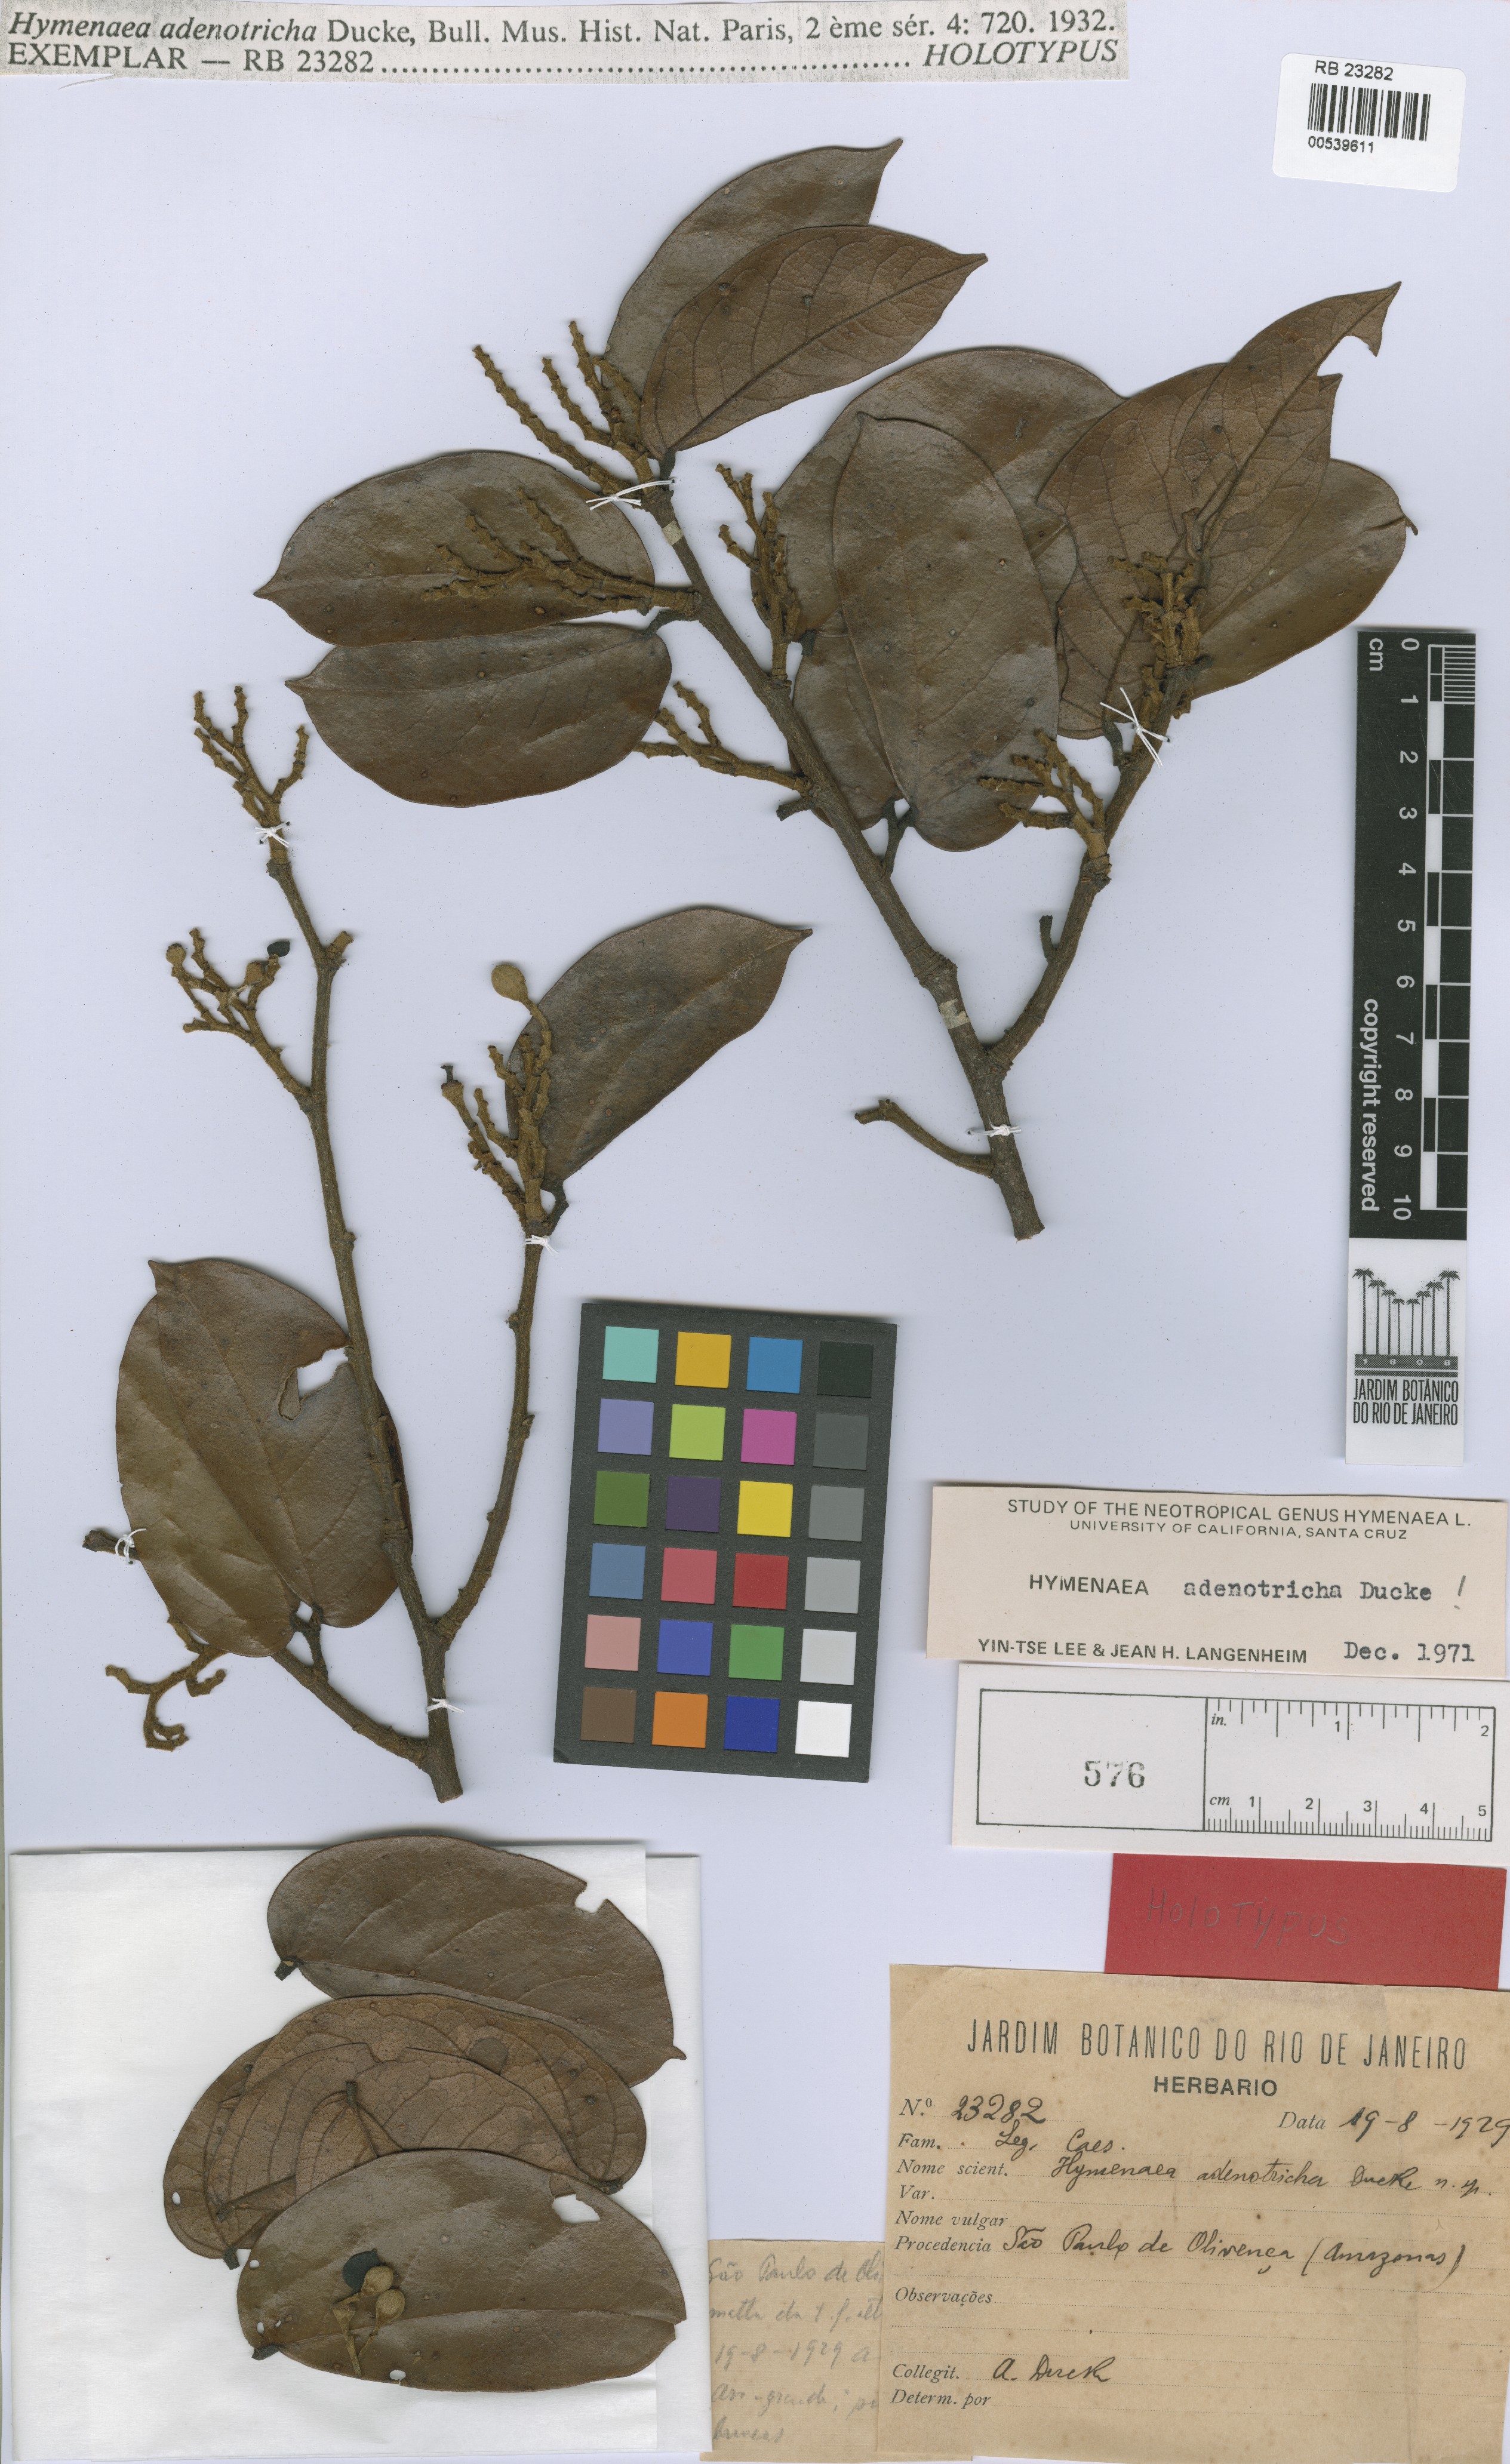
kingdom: Plantae
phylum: Tracheophyta
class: Magnoliopsida
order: Fabales
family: Fabaceae
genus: Hymenaea
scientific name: Hymenaea intermedia
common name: South american copal
